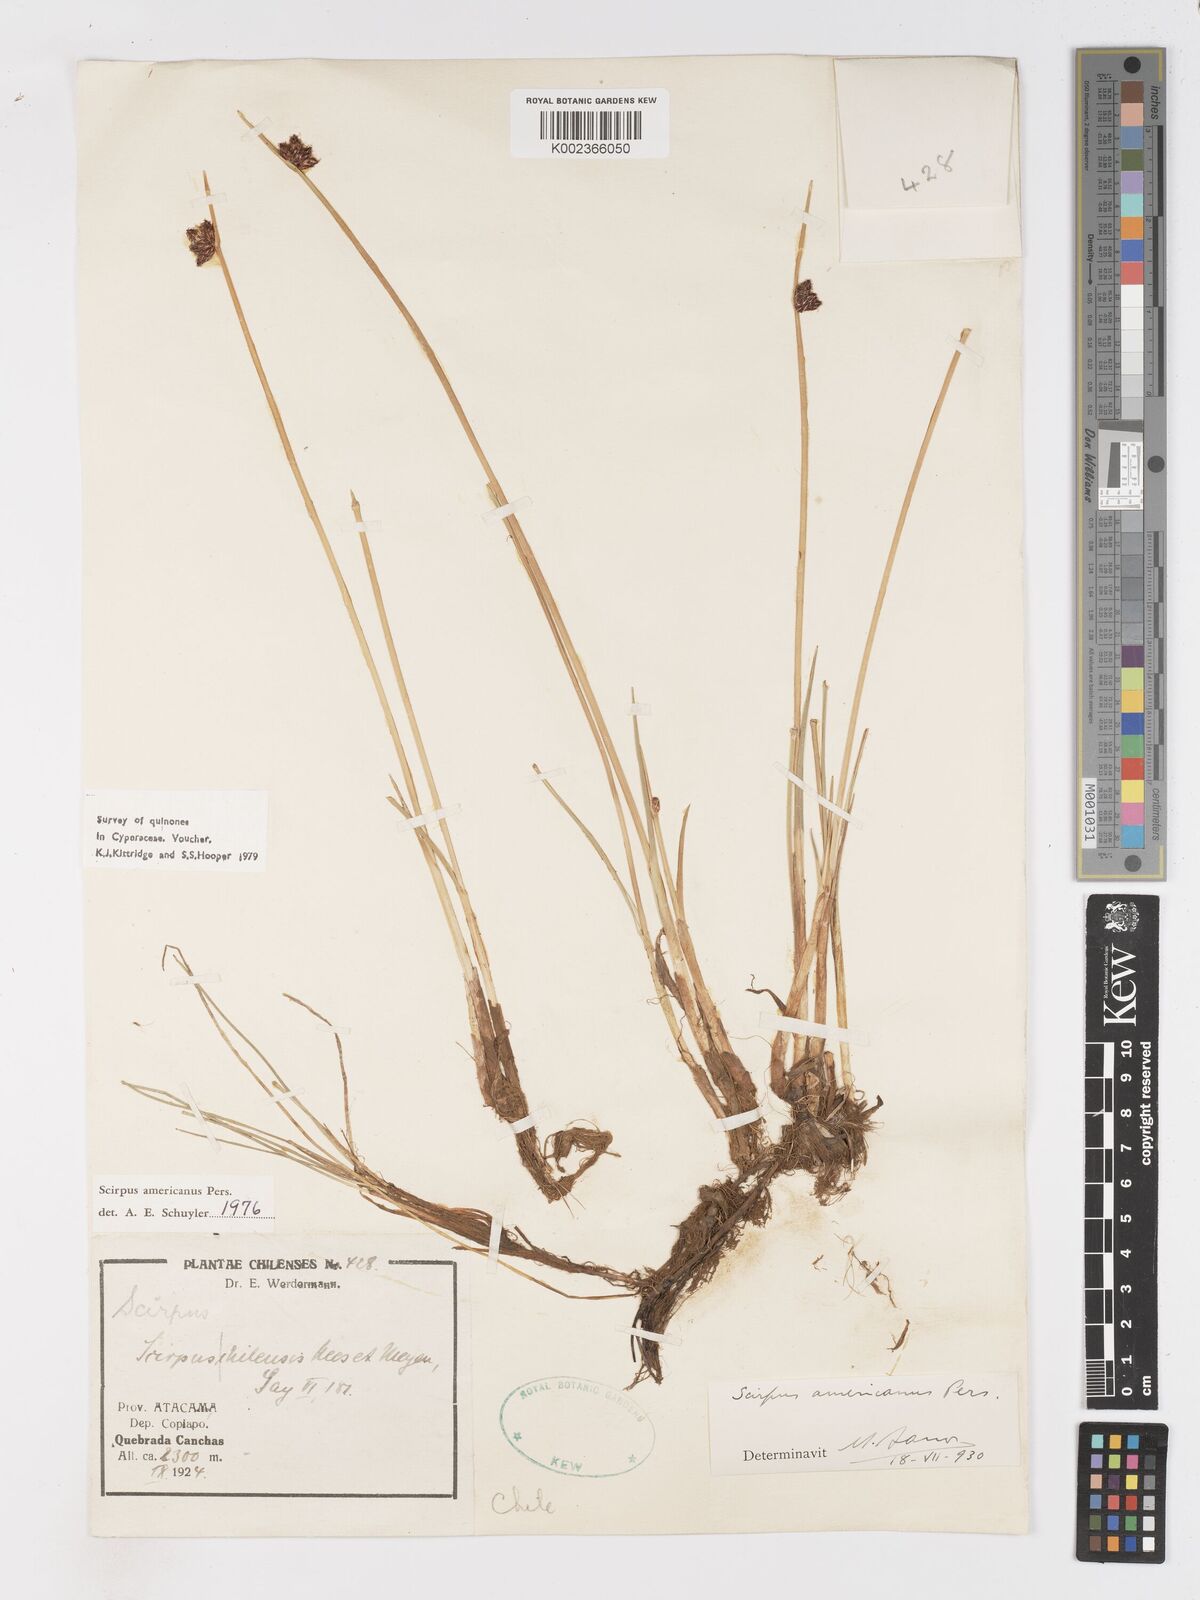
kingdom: Plantae
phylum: Tracheophyta
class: Liliopsida
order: Poales
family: Cyperaceae
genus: Schoenoplectus
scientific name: Schoenoplectus americanus
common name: American three-square bulrush
